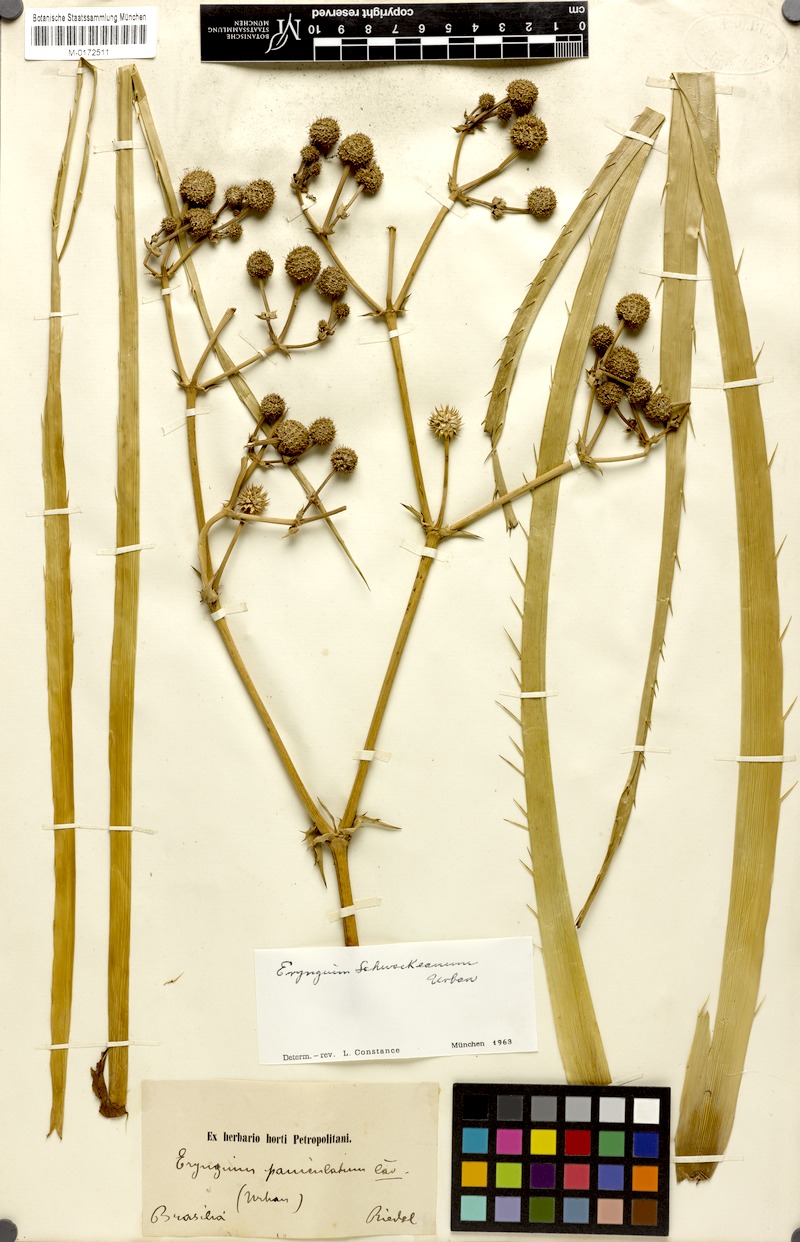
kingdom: Plantae
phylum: Tracheophyta
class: Magnoliopsida
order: Apiales
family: Apiaceae
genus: Eryngium
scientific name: Eryngium horridum
